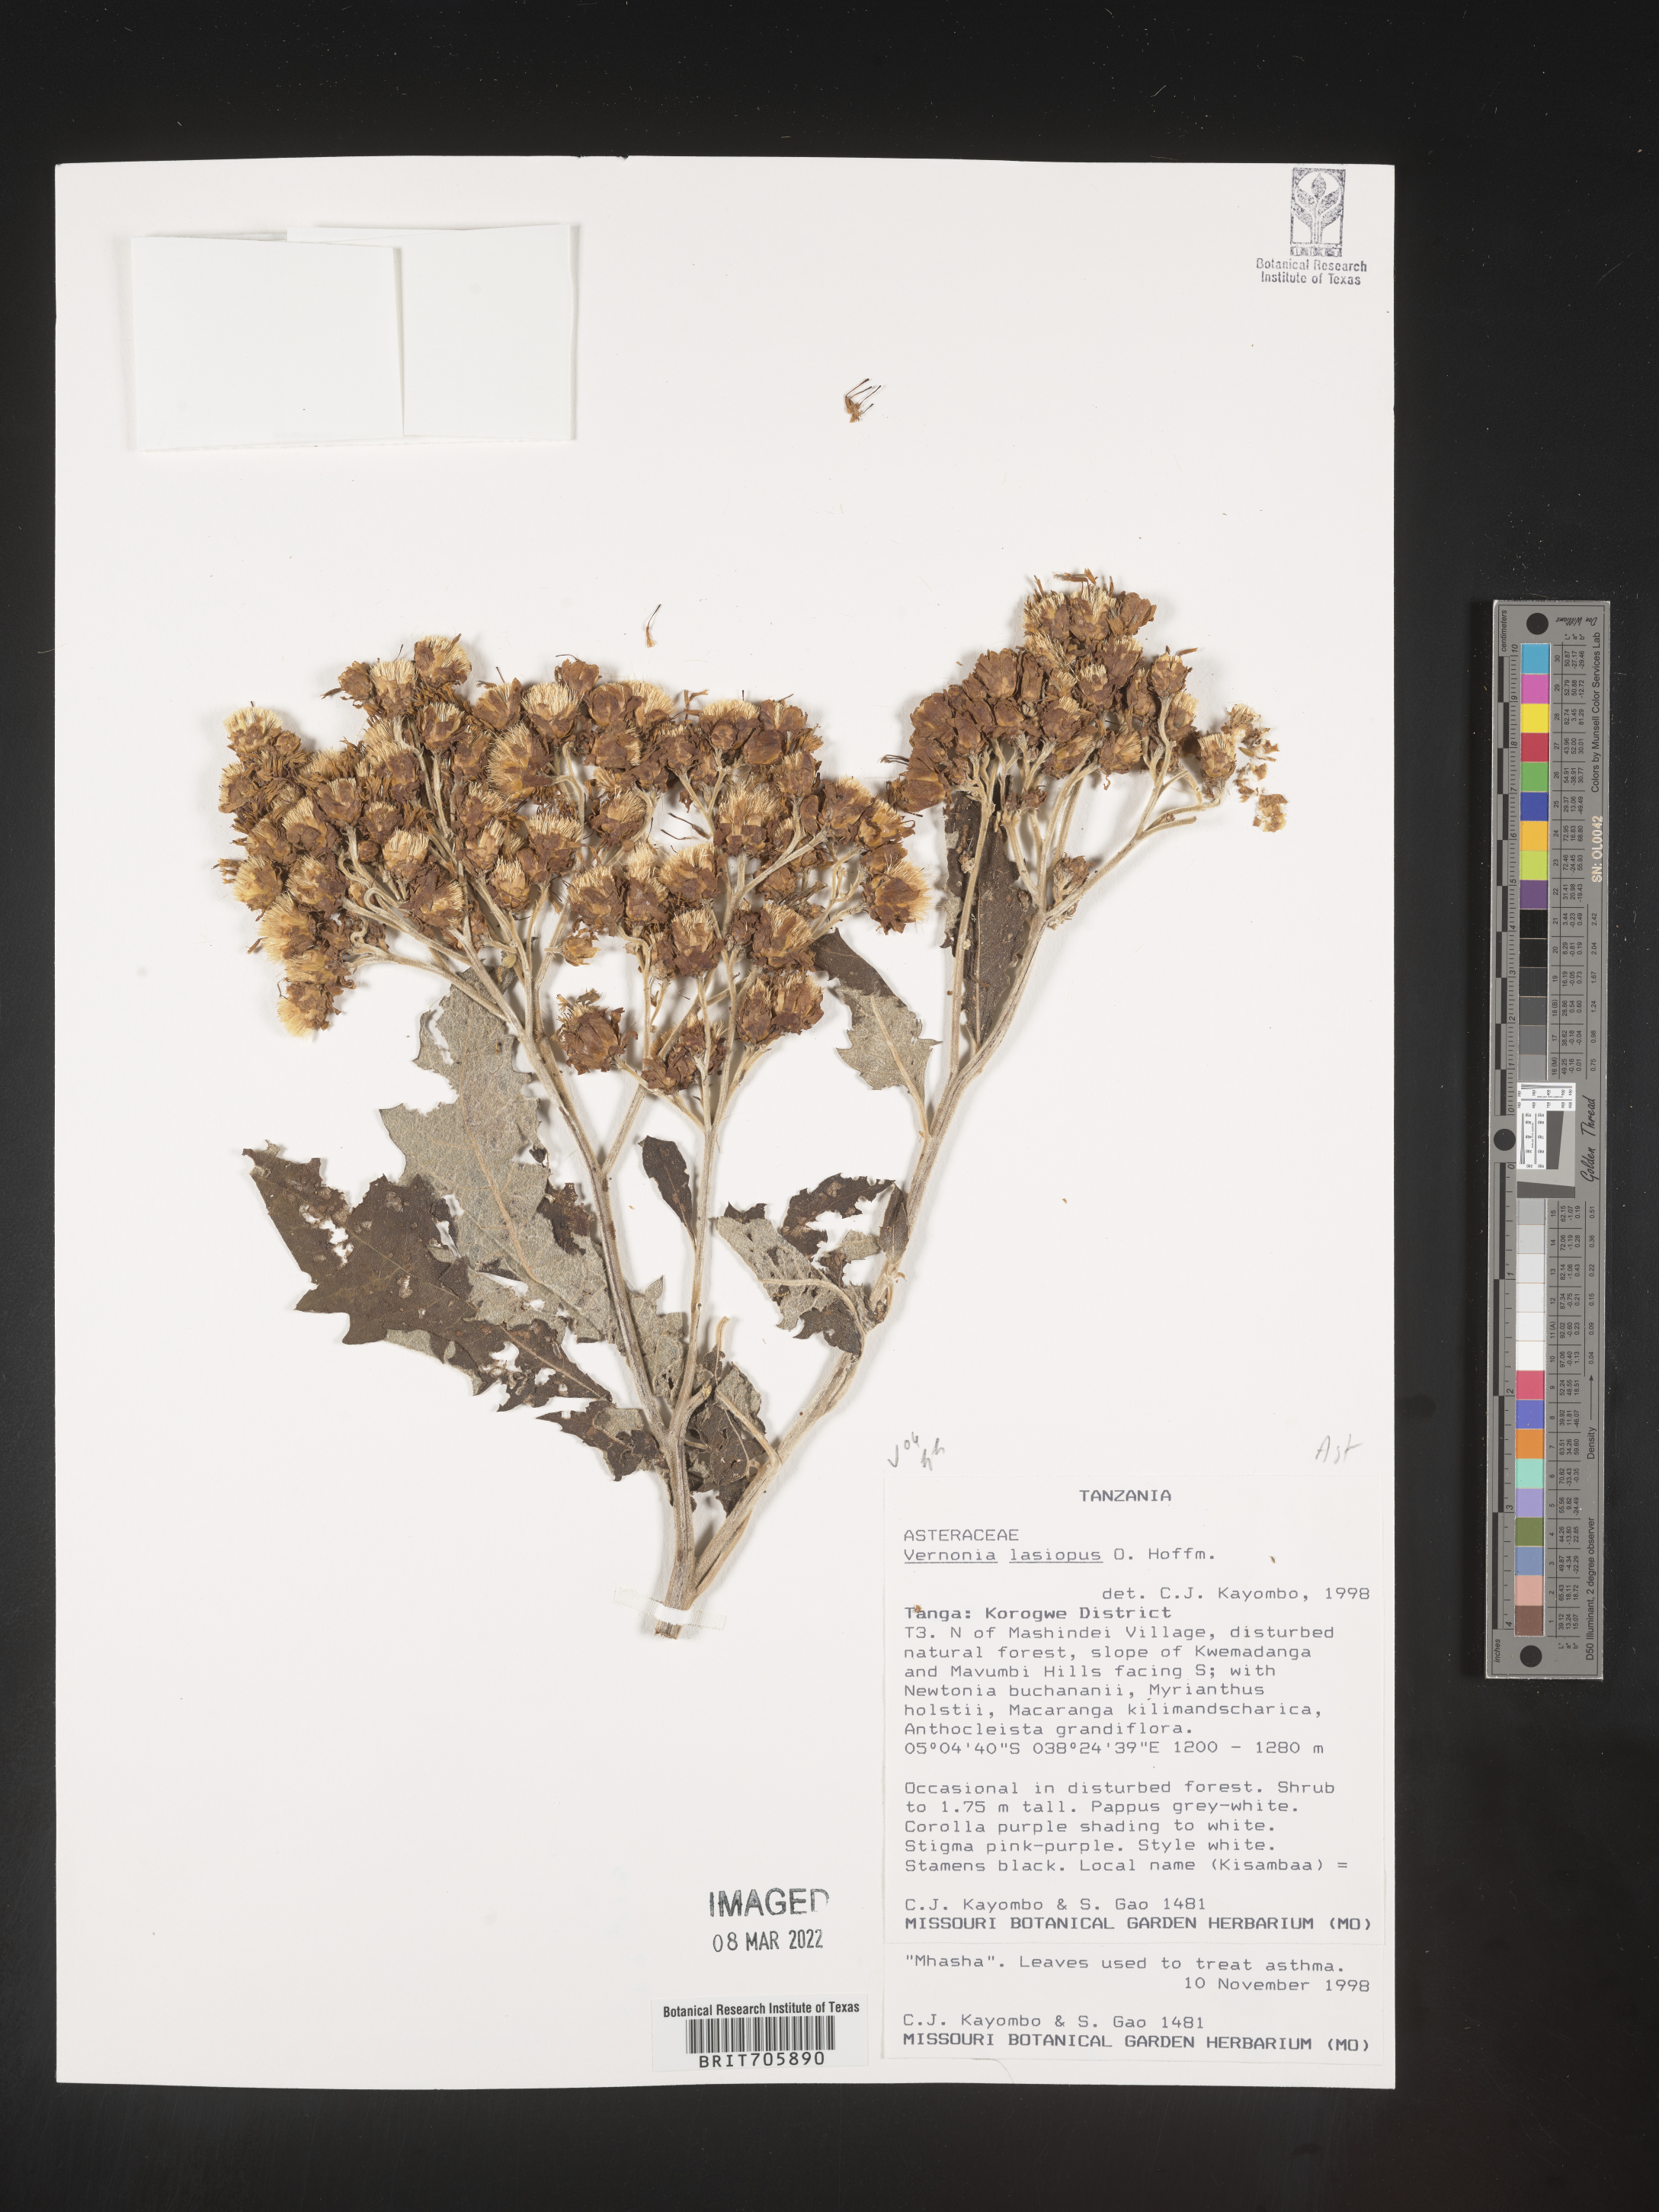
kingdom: Plantae
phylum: Tracheophyta
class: Magnoliopsida
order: Asterales
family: Asteraceae
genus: Vernonia
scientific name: Vernonia
